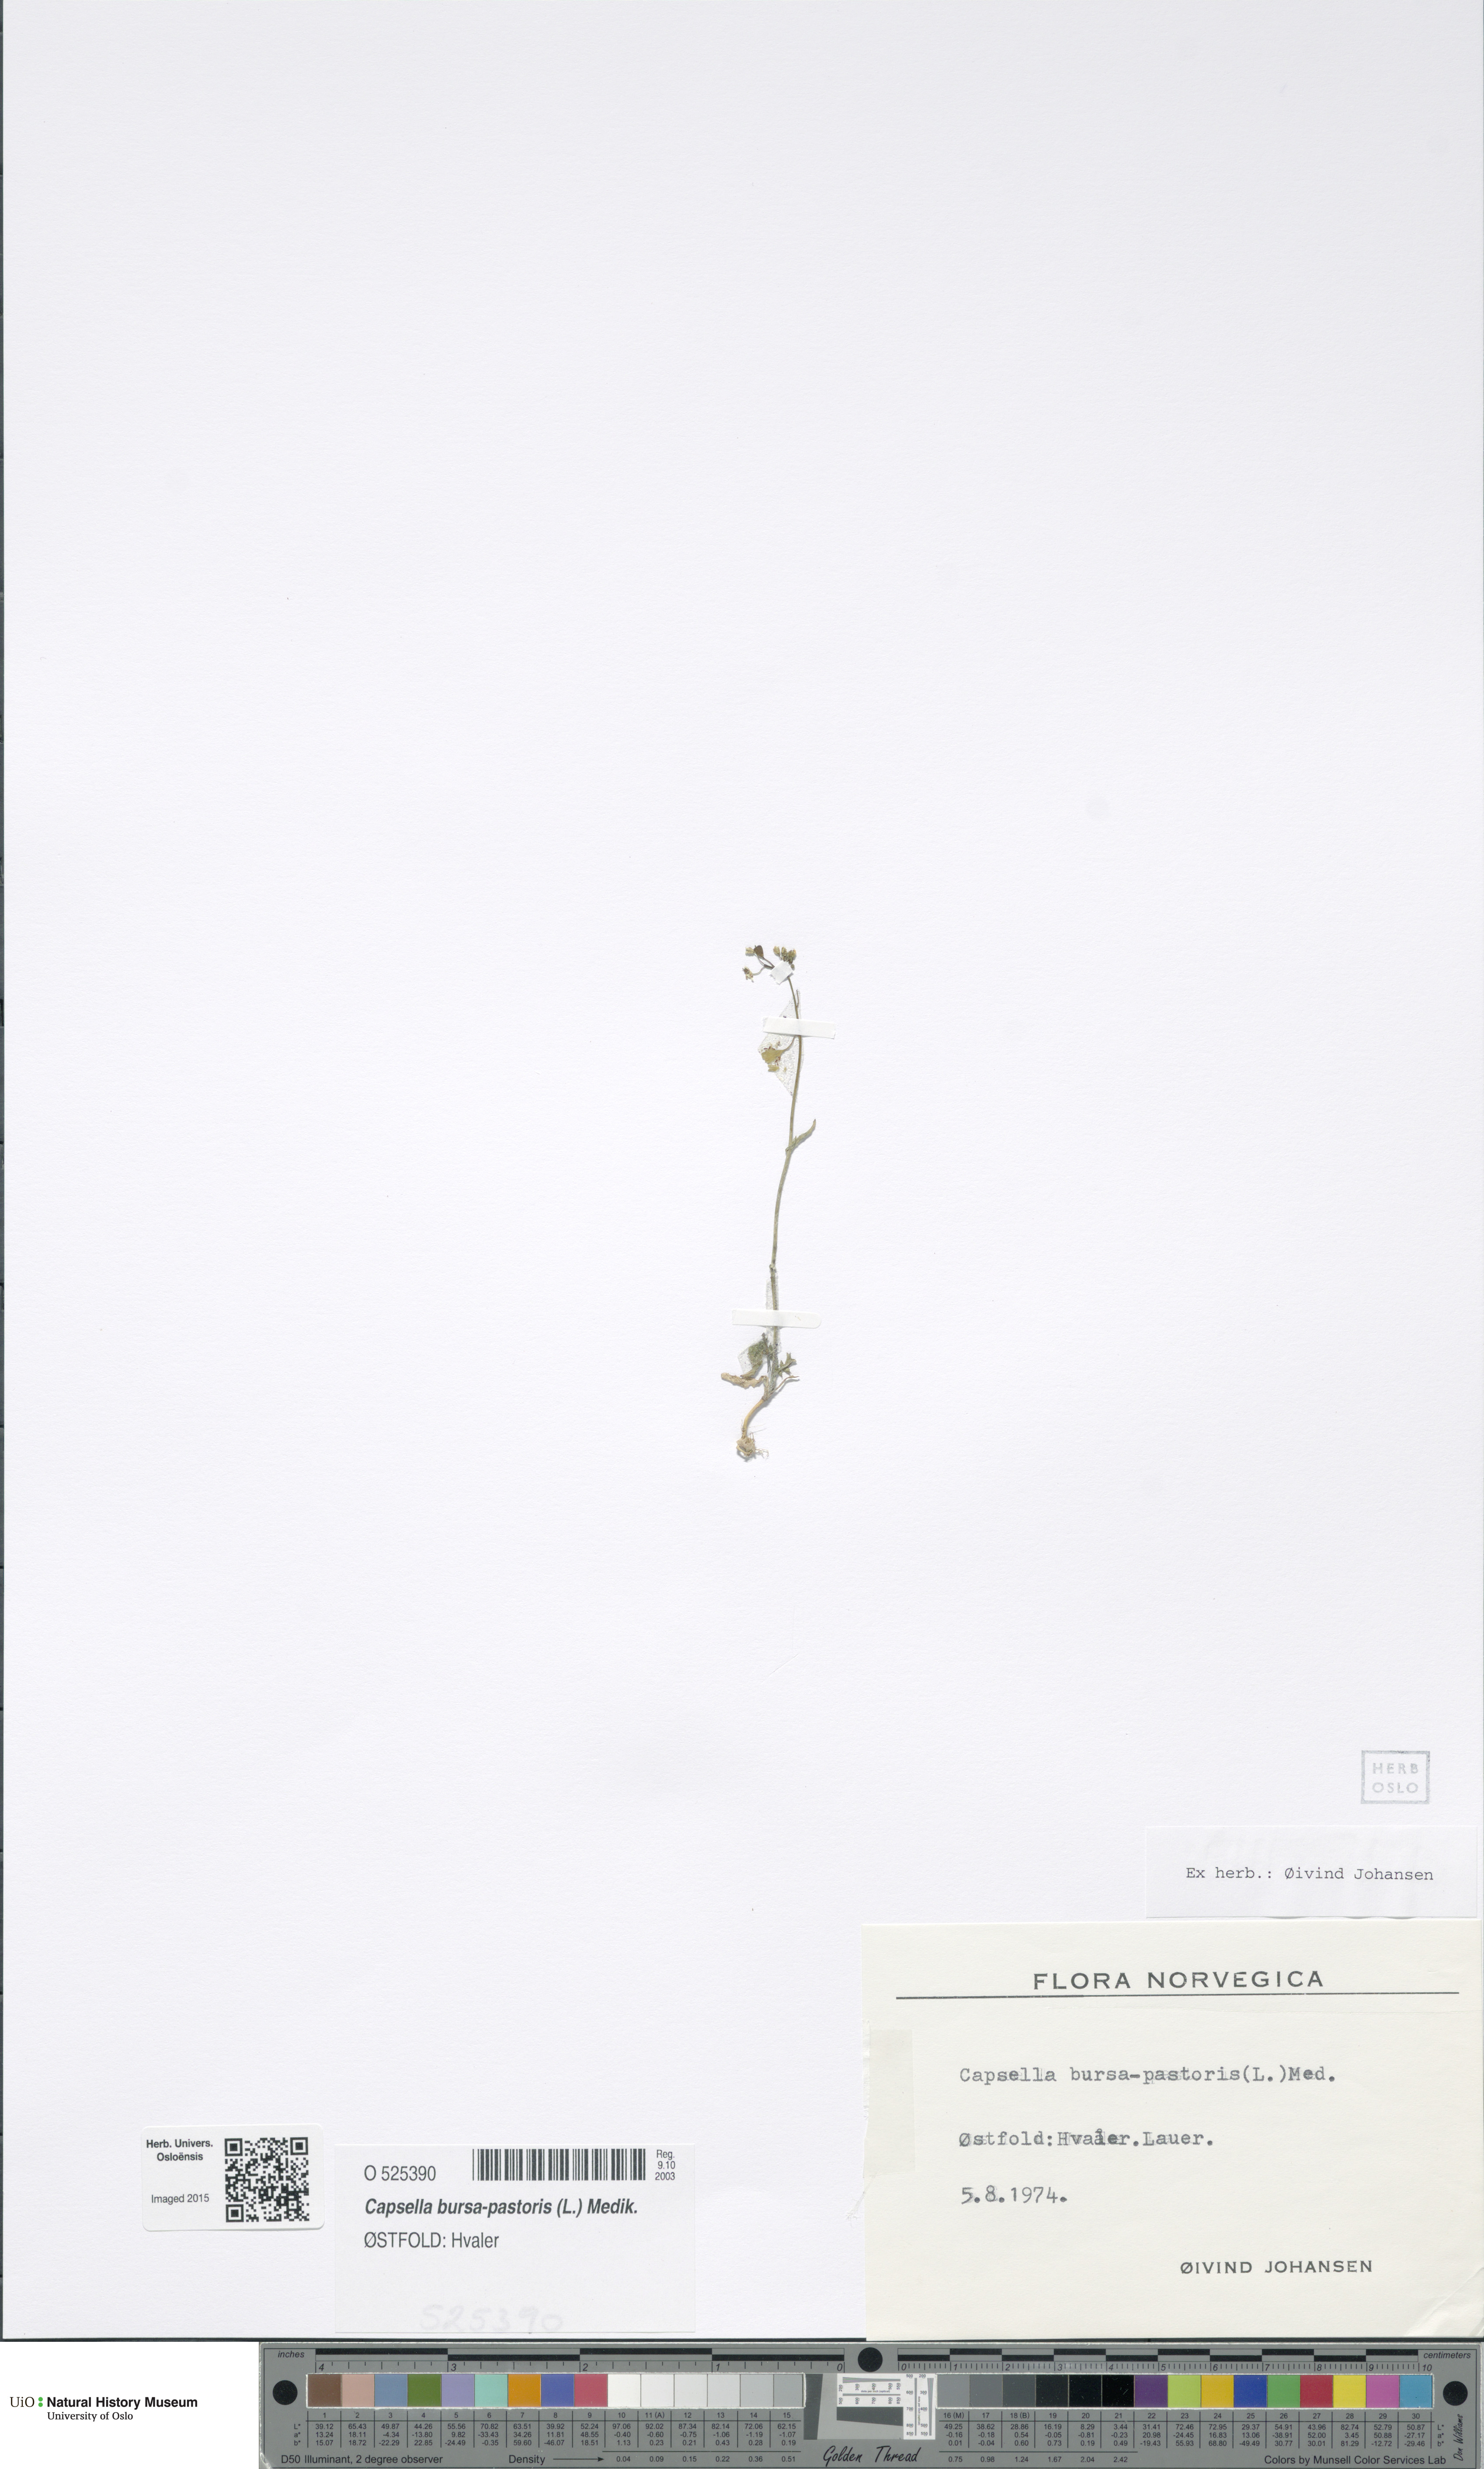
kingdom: Plantae
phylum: Tracheophyta
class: Magnoliopsida
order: Brassicales
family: Brassicaceae
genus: Capsella
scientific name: Capsella bursa-pastoris
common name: Shepherd's purse
